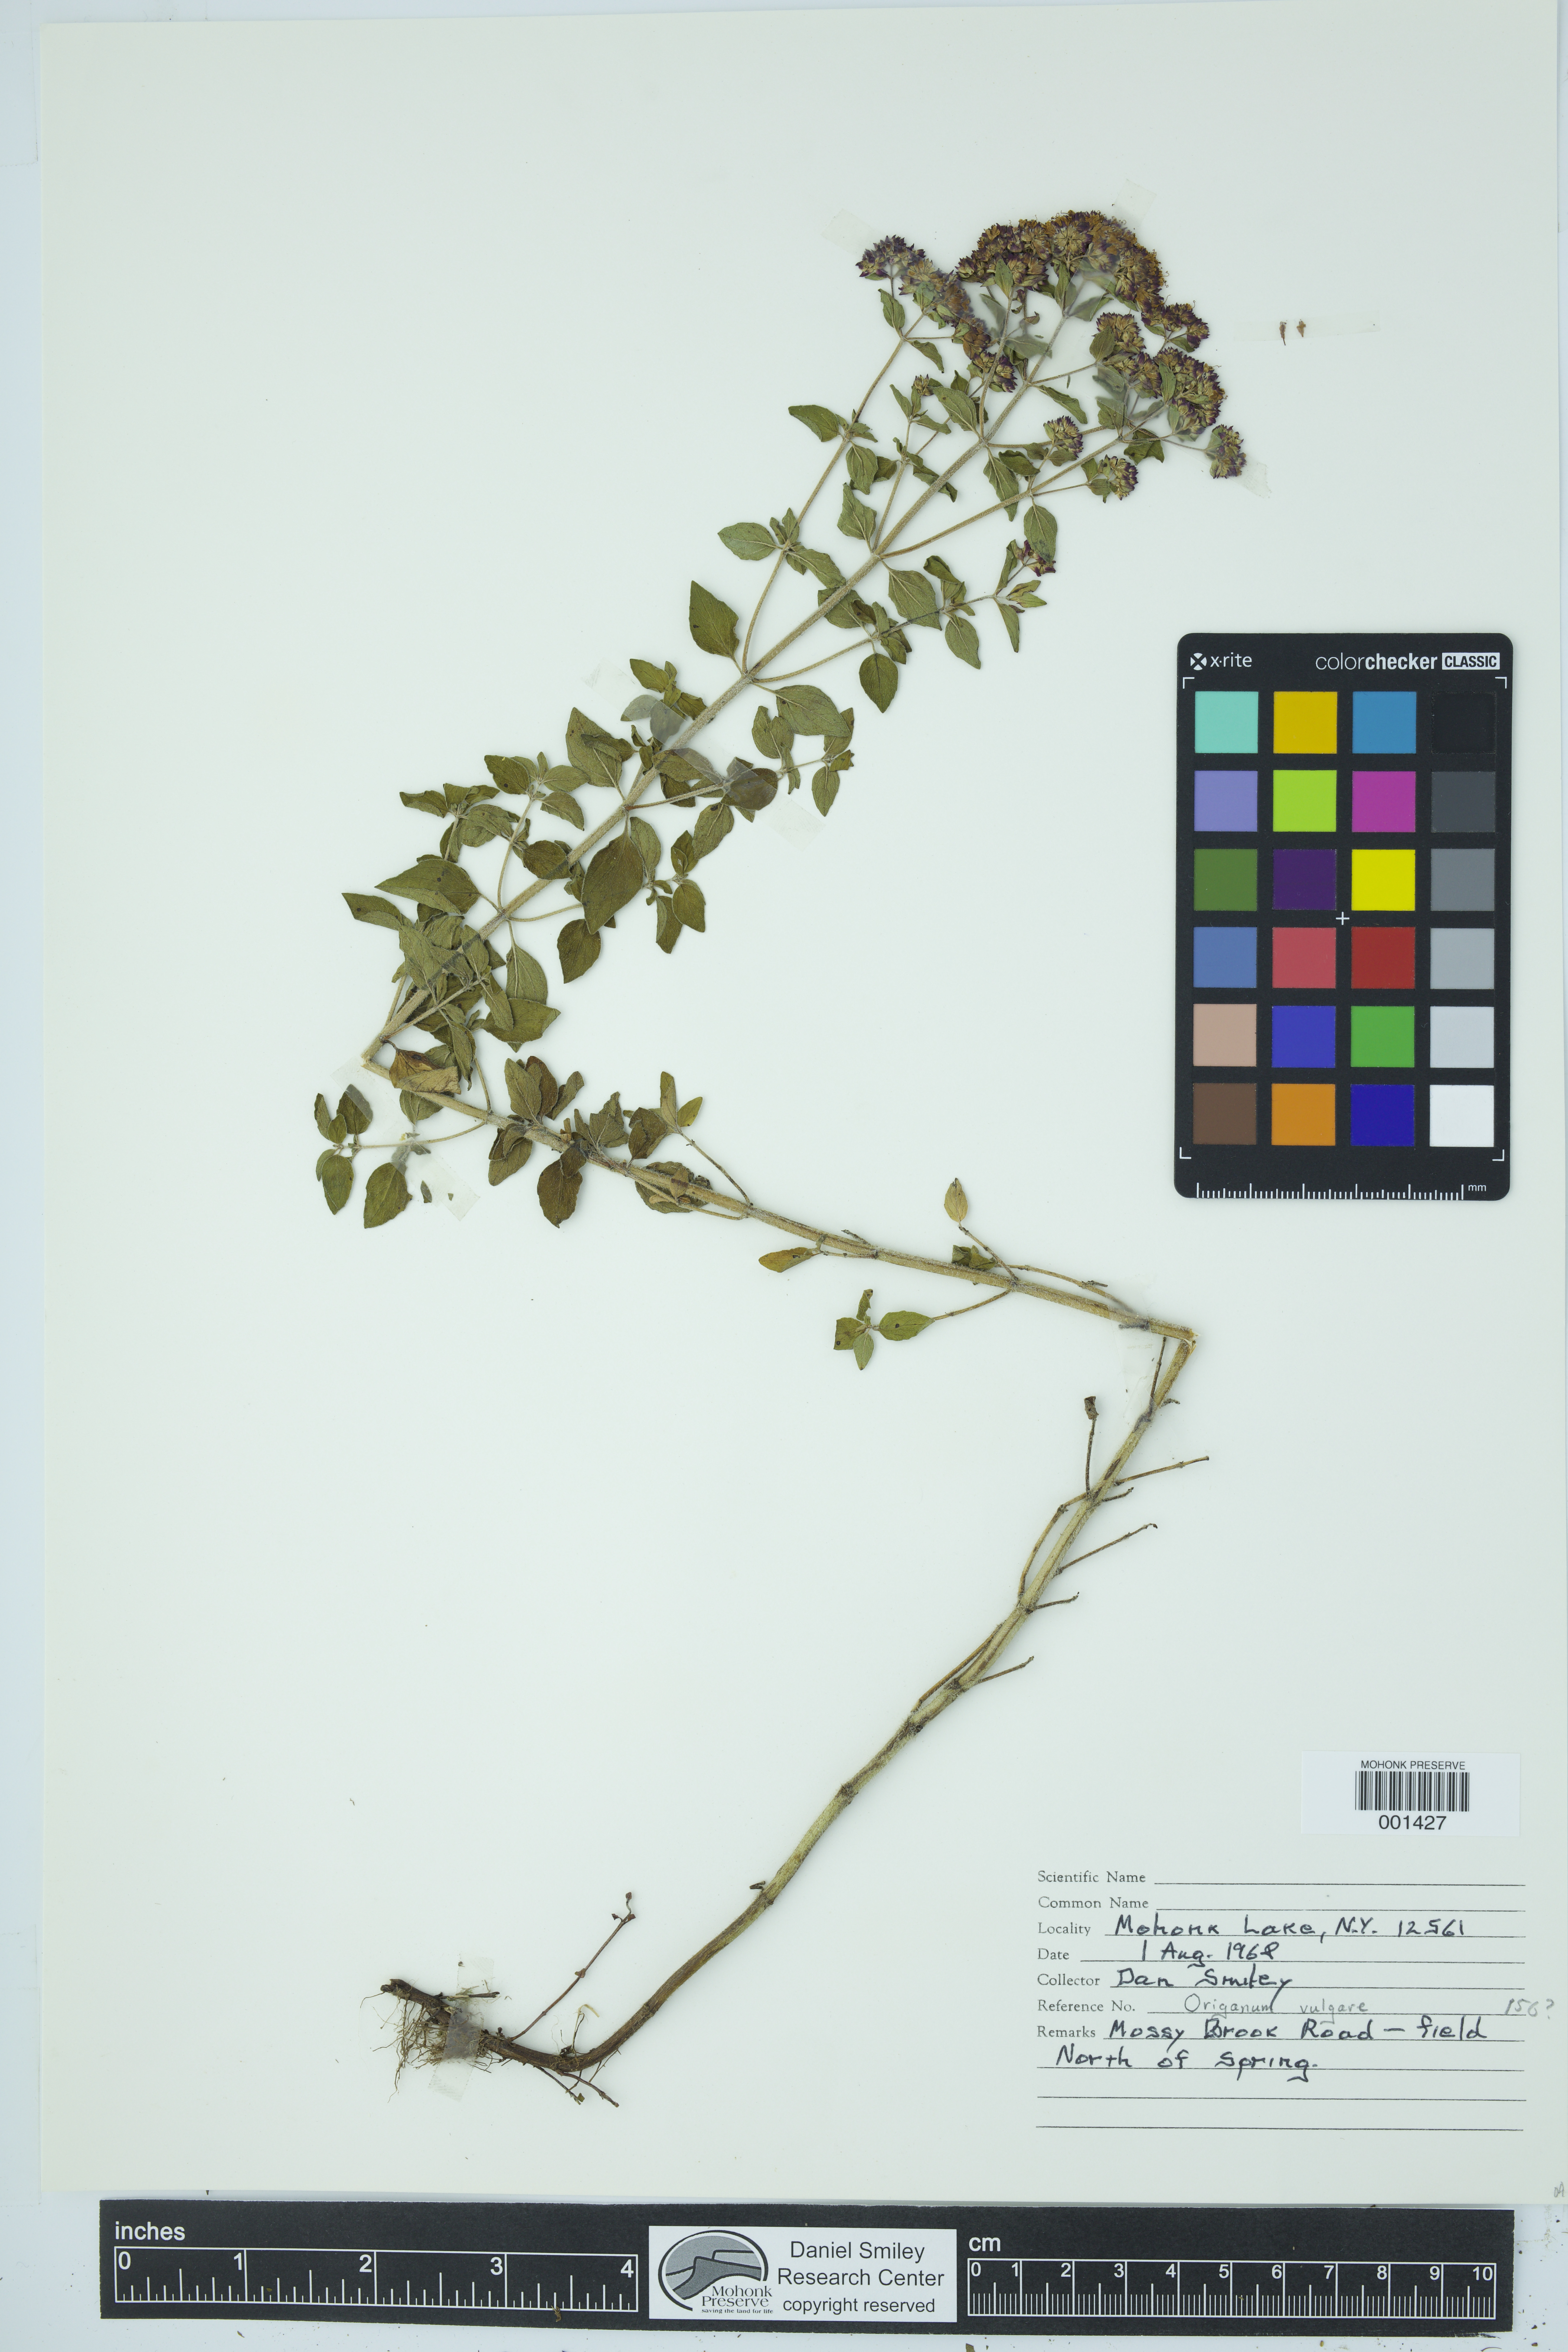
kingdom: Plantae
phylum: Tracheophyta
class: Magnoliopsida
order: Lamiales
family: Lamiaceae
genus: Origanum
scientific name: Origanum vulgare
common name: Wild marjoram
